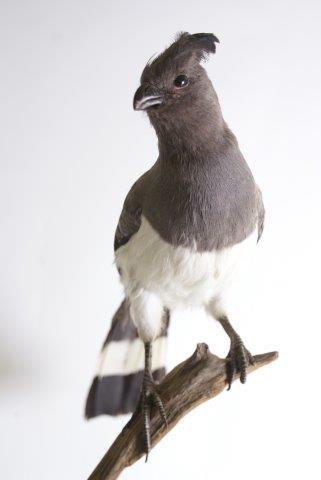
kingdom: Animalia
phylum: Chordata
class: Aves
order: Musophagiformes
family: Musophagidae
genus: Corythaixoides
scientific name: Corythaixoides leucogaster
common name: White-bellied go-away-bird
